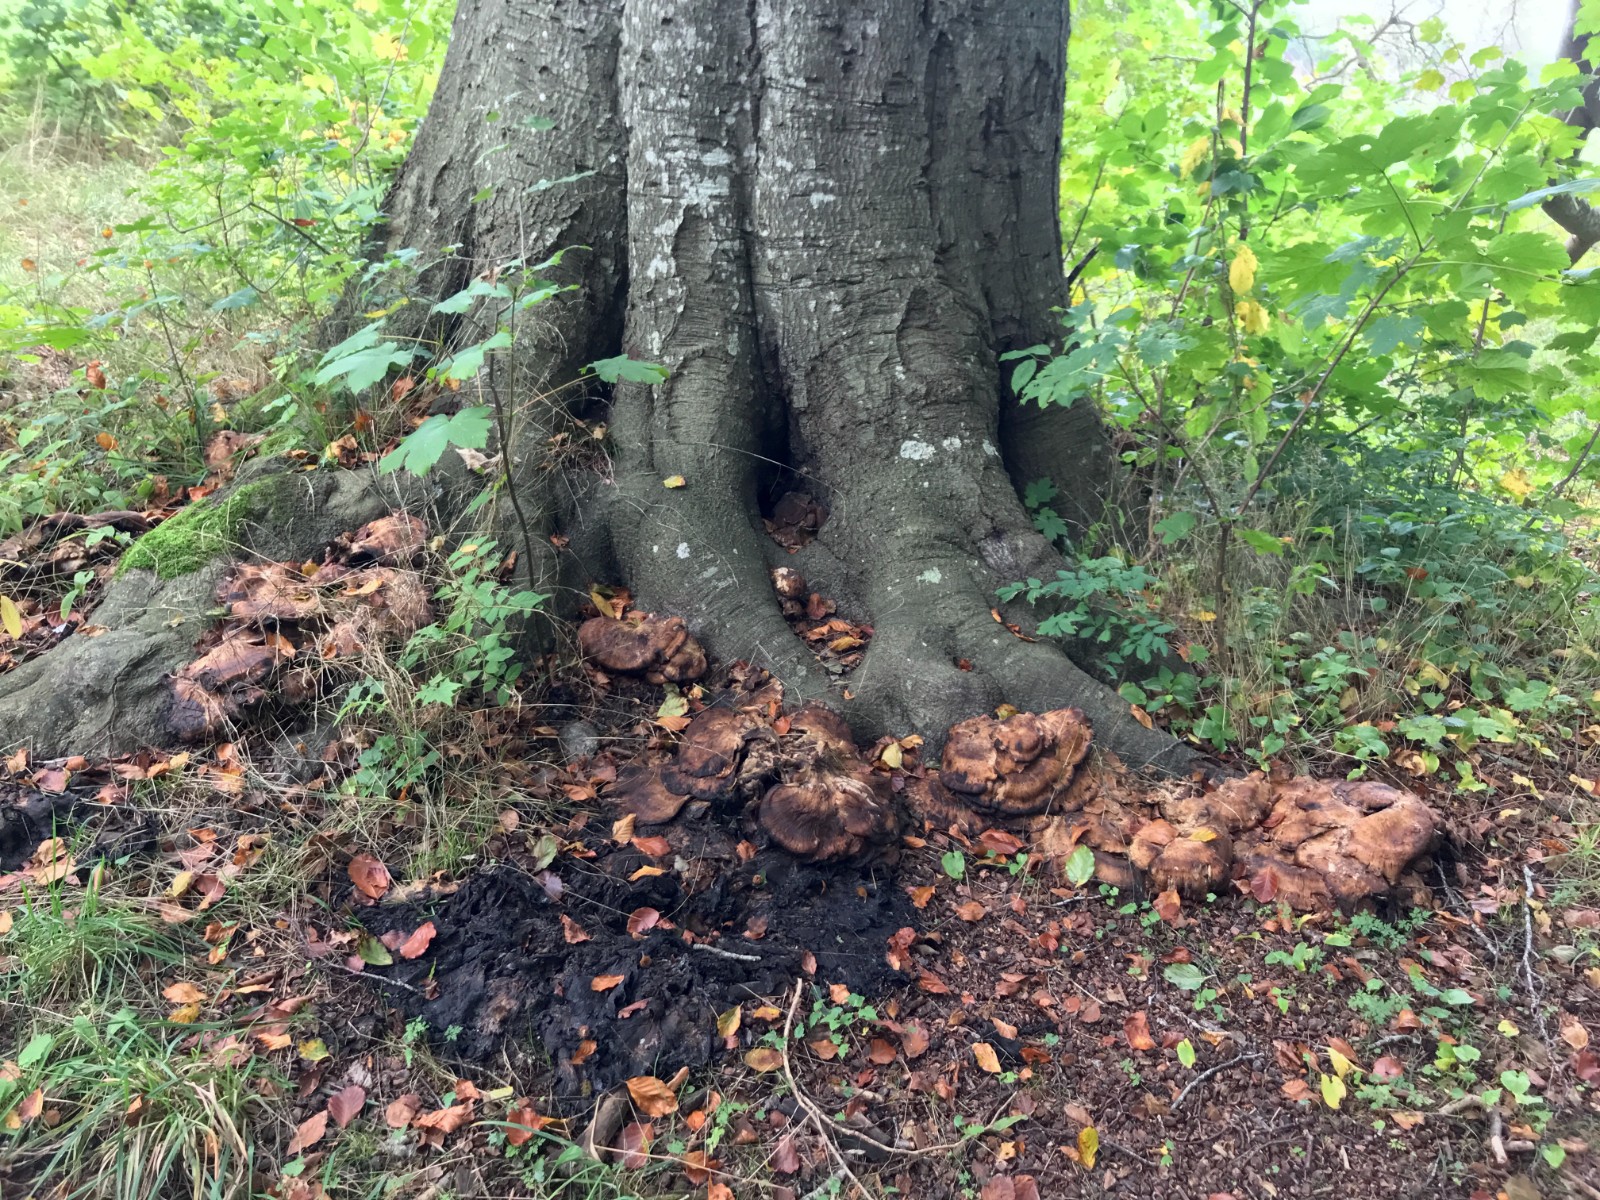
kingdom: Fungi
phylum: Basidiomycota
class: Agaricomycetes
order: Polyporales
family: Meripilaceae
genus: Meripilus
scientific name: Meripilus giganteus
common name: kæmpeporesvamp
